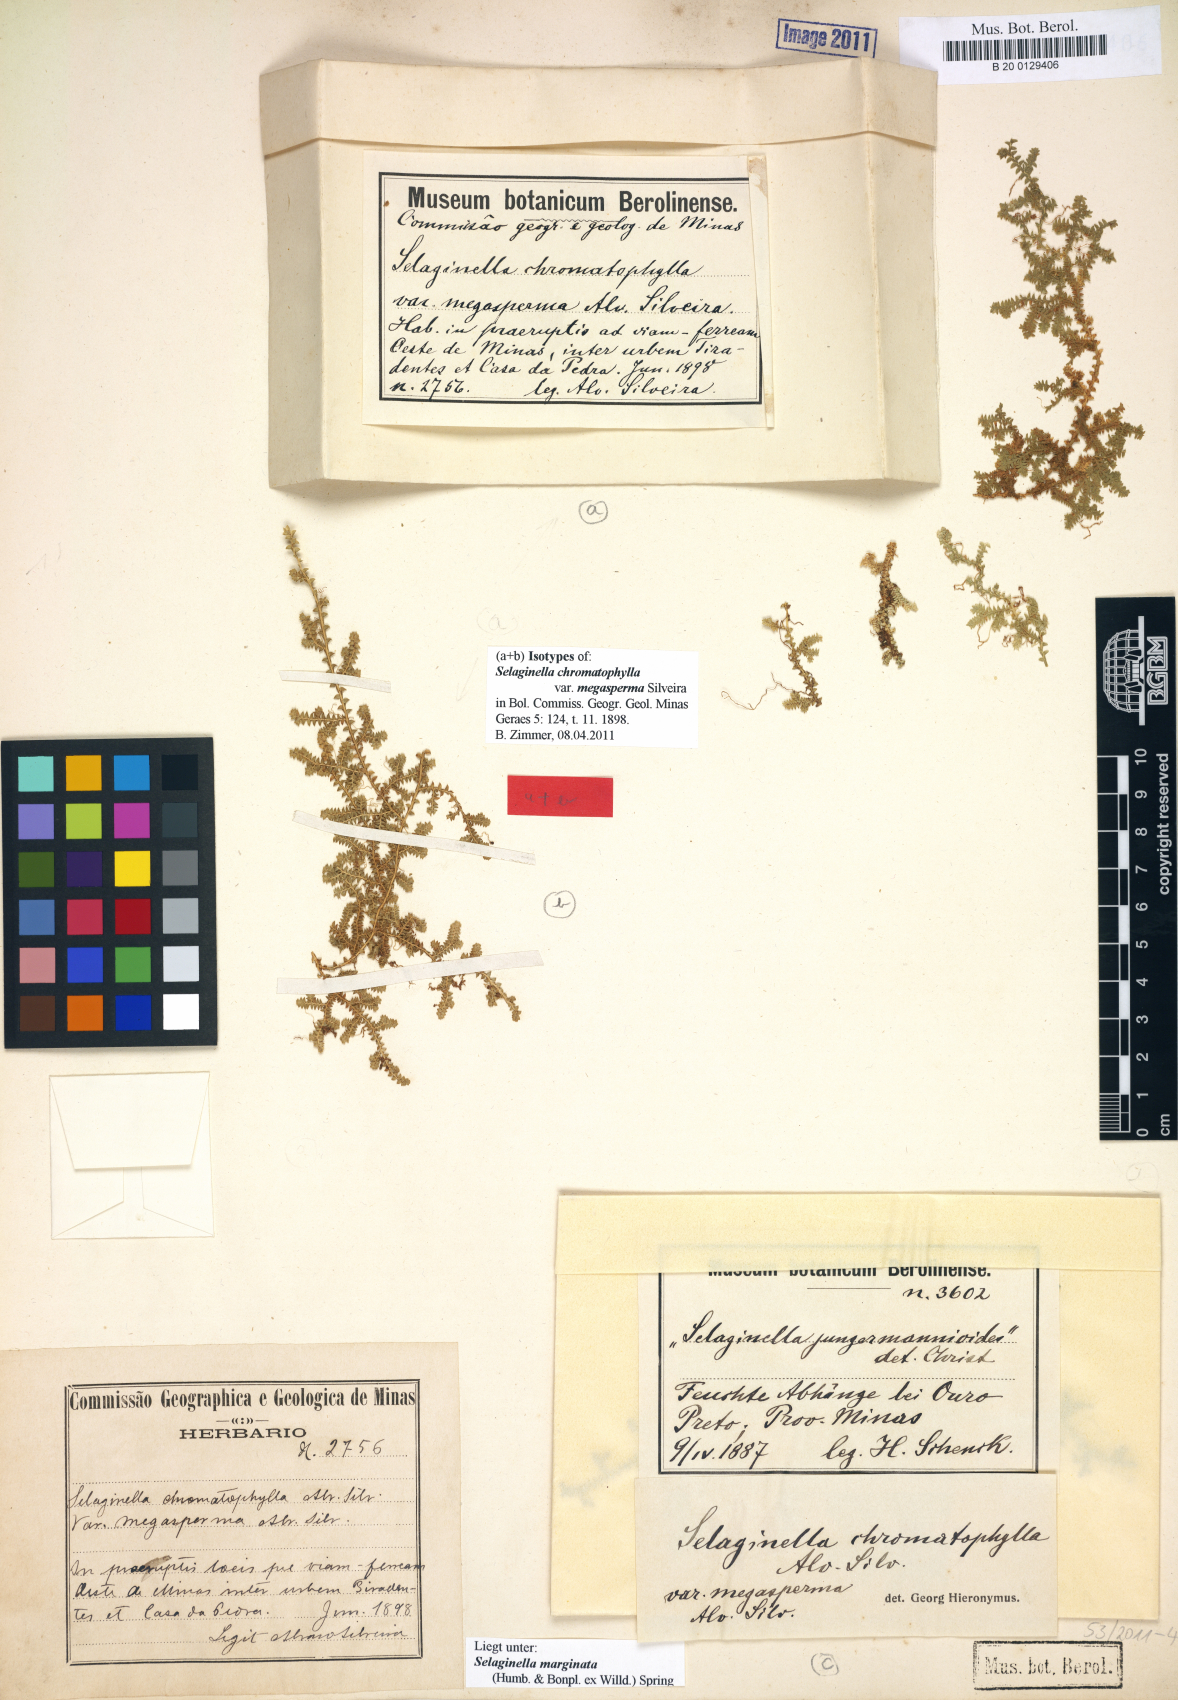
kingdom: Plantae
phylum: Tracheophyta
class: Lycopodiopsida
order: Selaginellales
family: Selaginellaceae
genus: Selaginella
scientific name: Selaginella marginata
